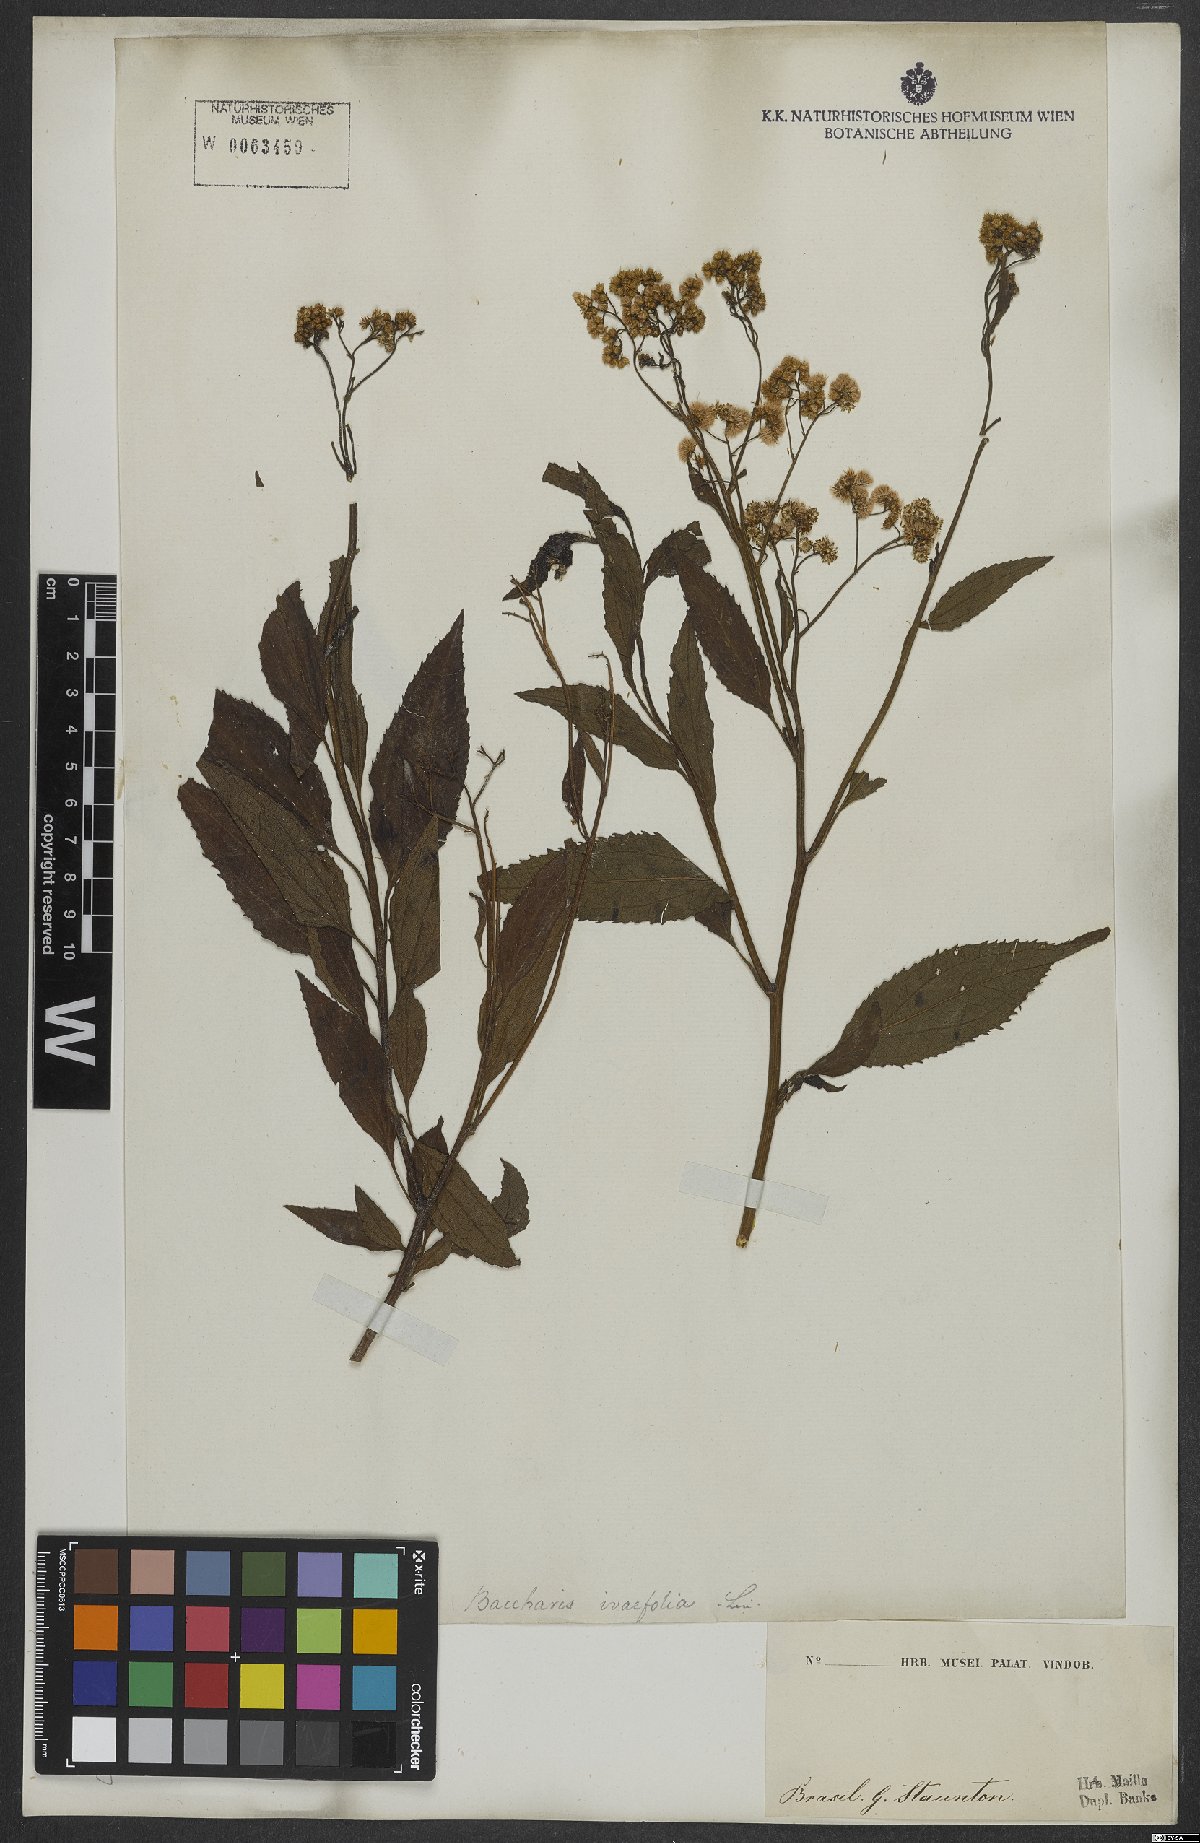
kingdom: Plantae
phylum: Tracheophyta
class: Magnoliopsida
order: Asterales
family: Asteraceae
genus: Pluchea
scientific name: Pluchea
